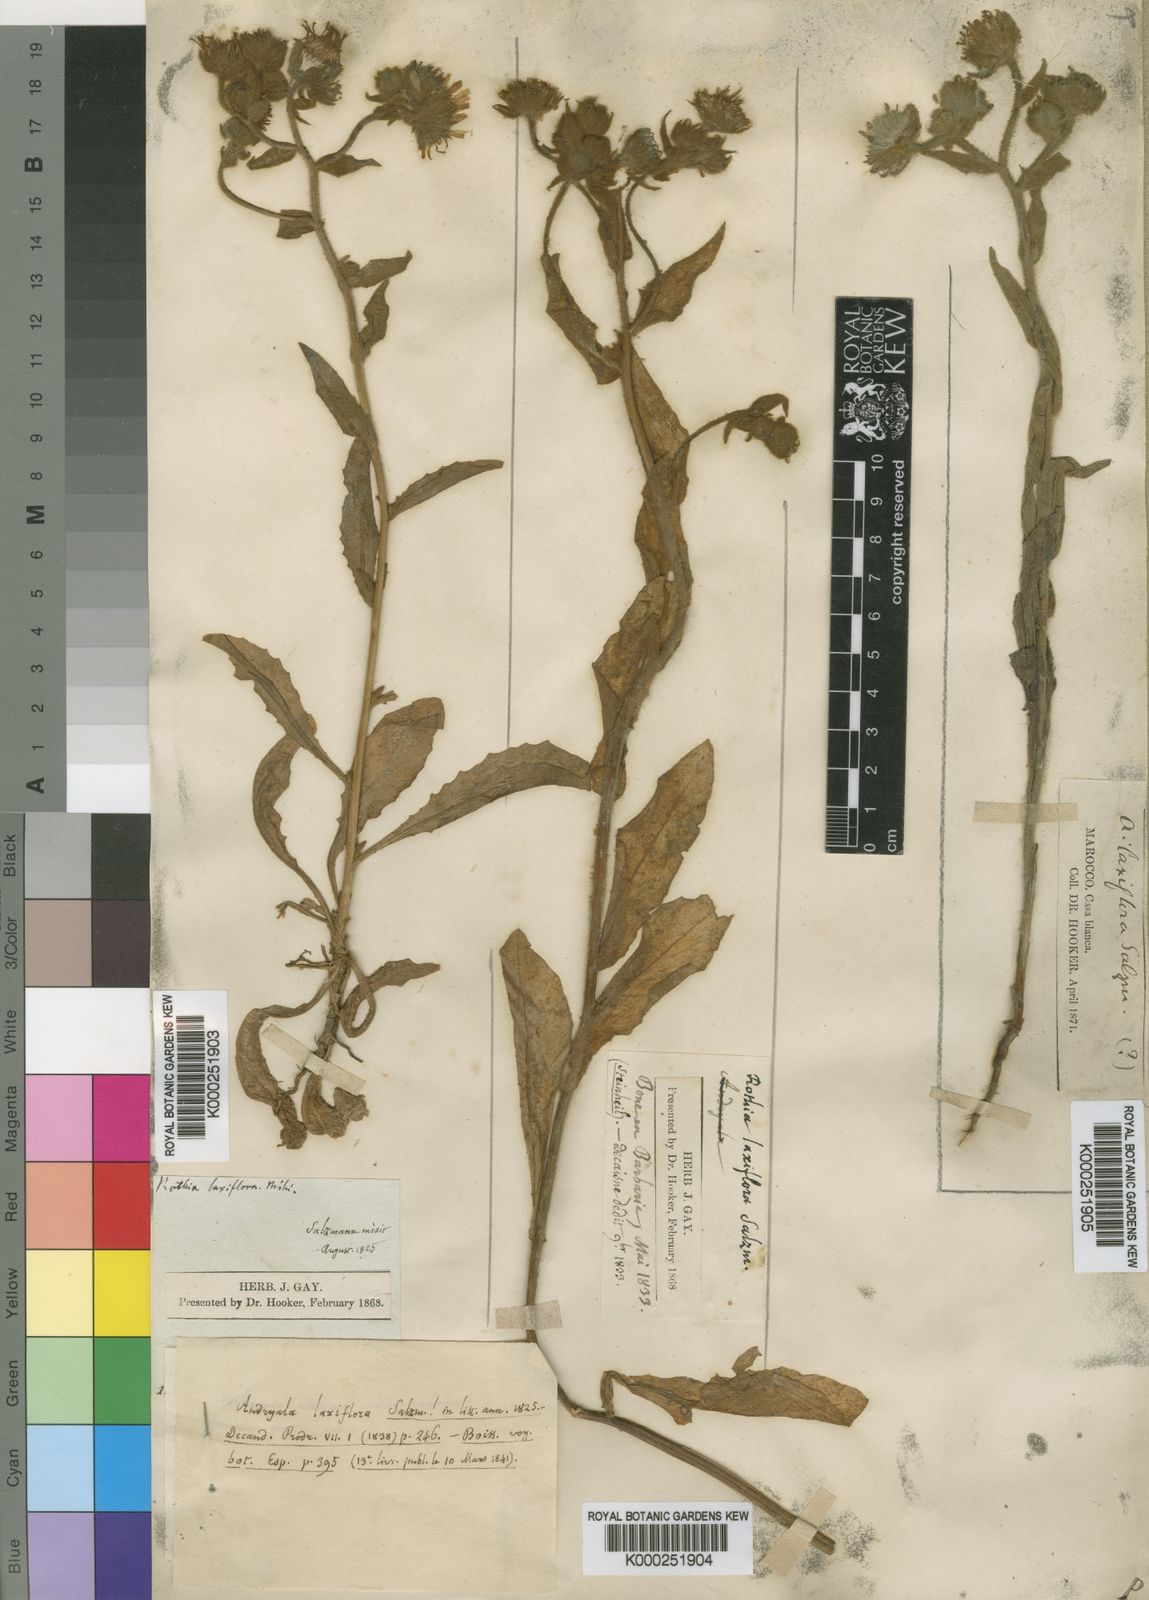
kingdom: Plantae
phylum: Tracheophyta
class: Magnoliopsida
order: Asterales
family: Asteraceae
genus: Andryala
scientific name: Andryala rothia
